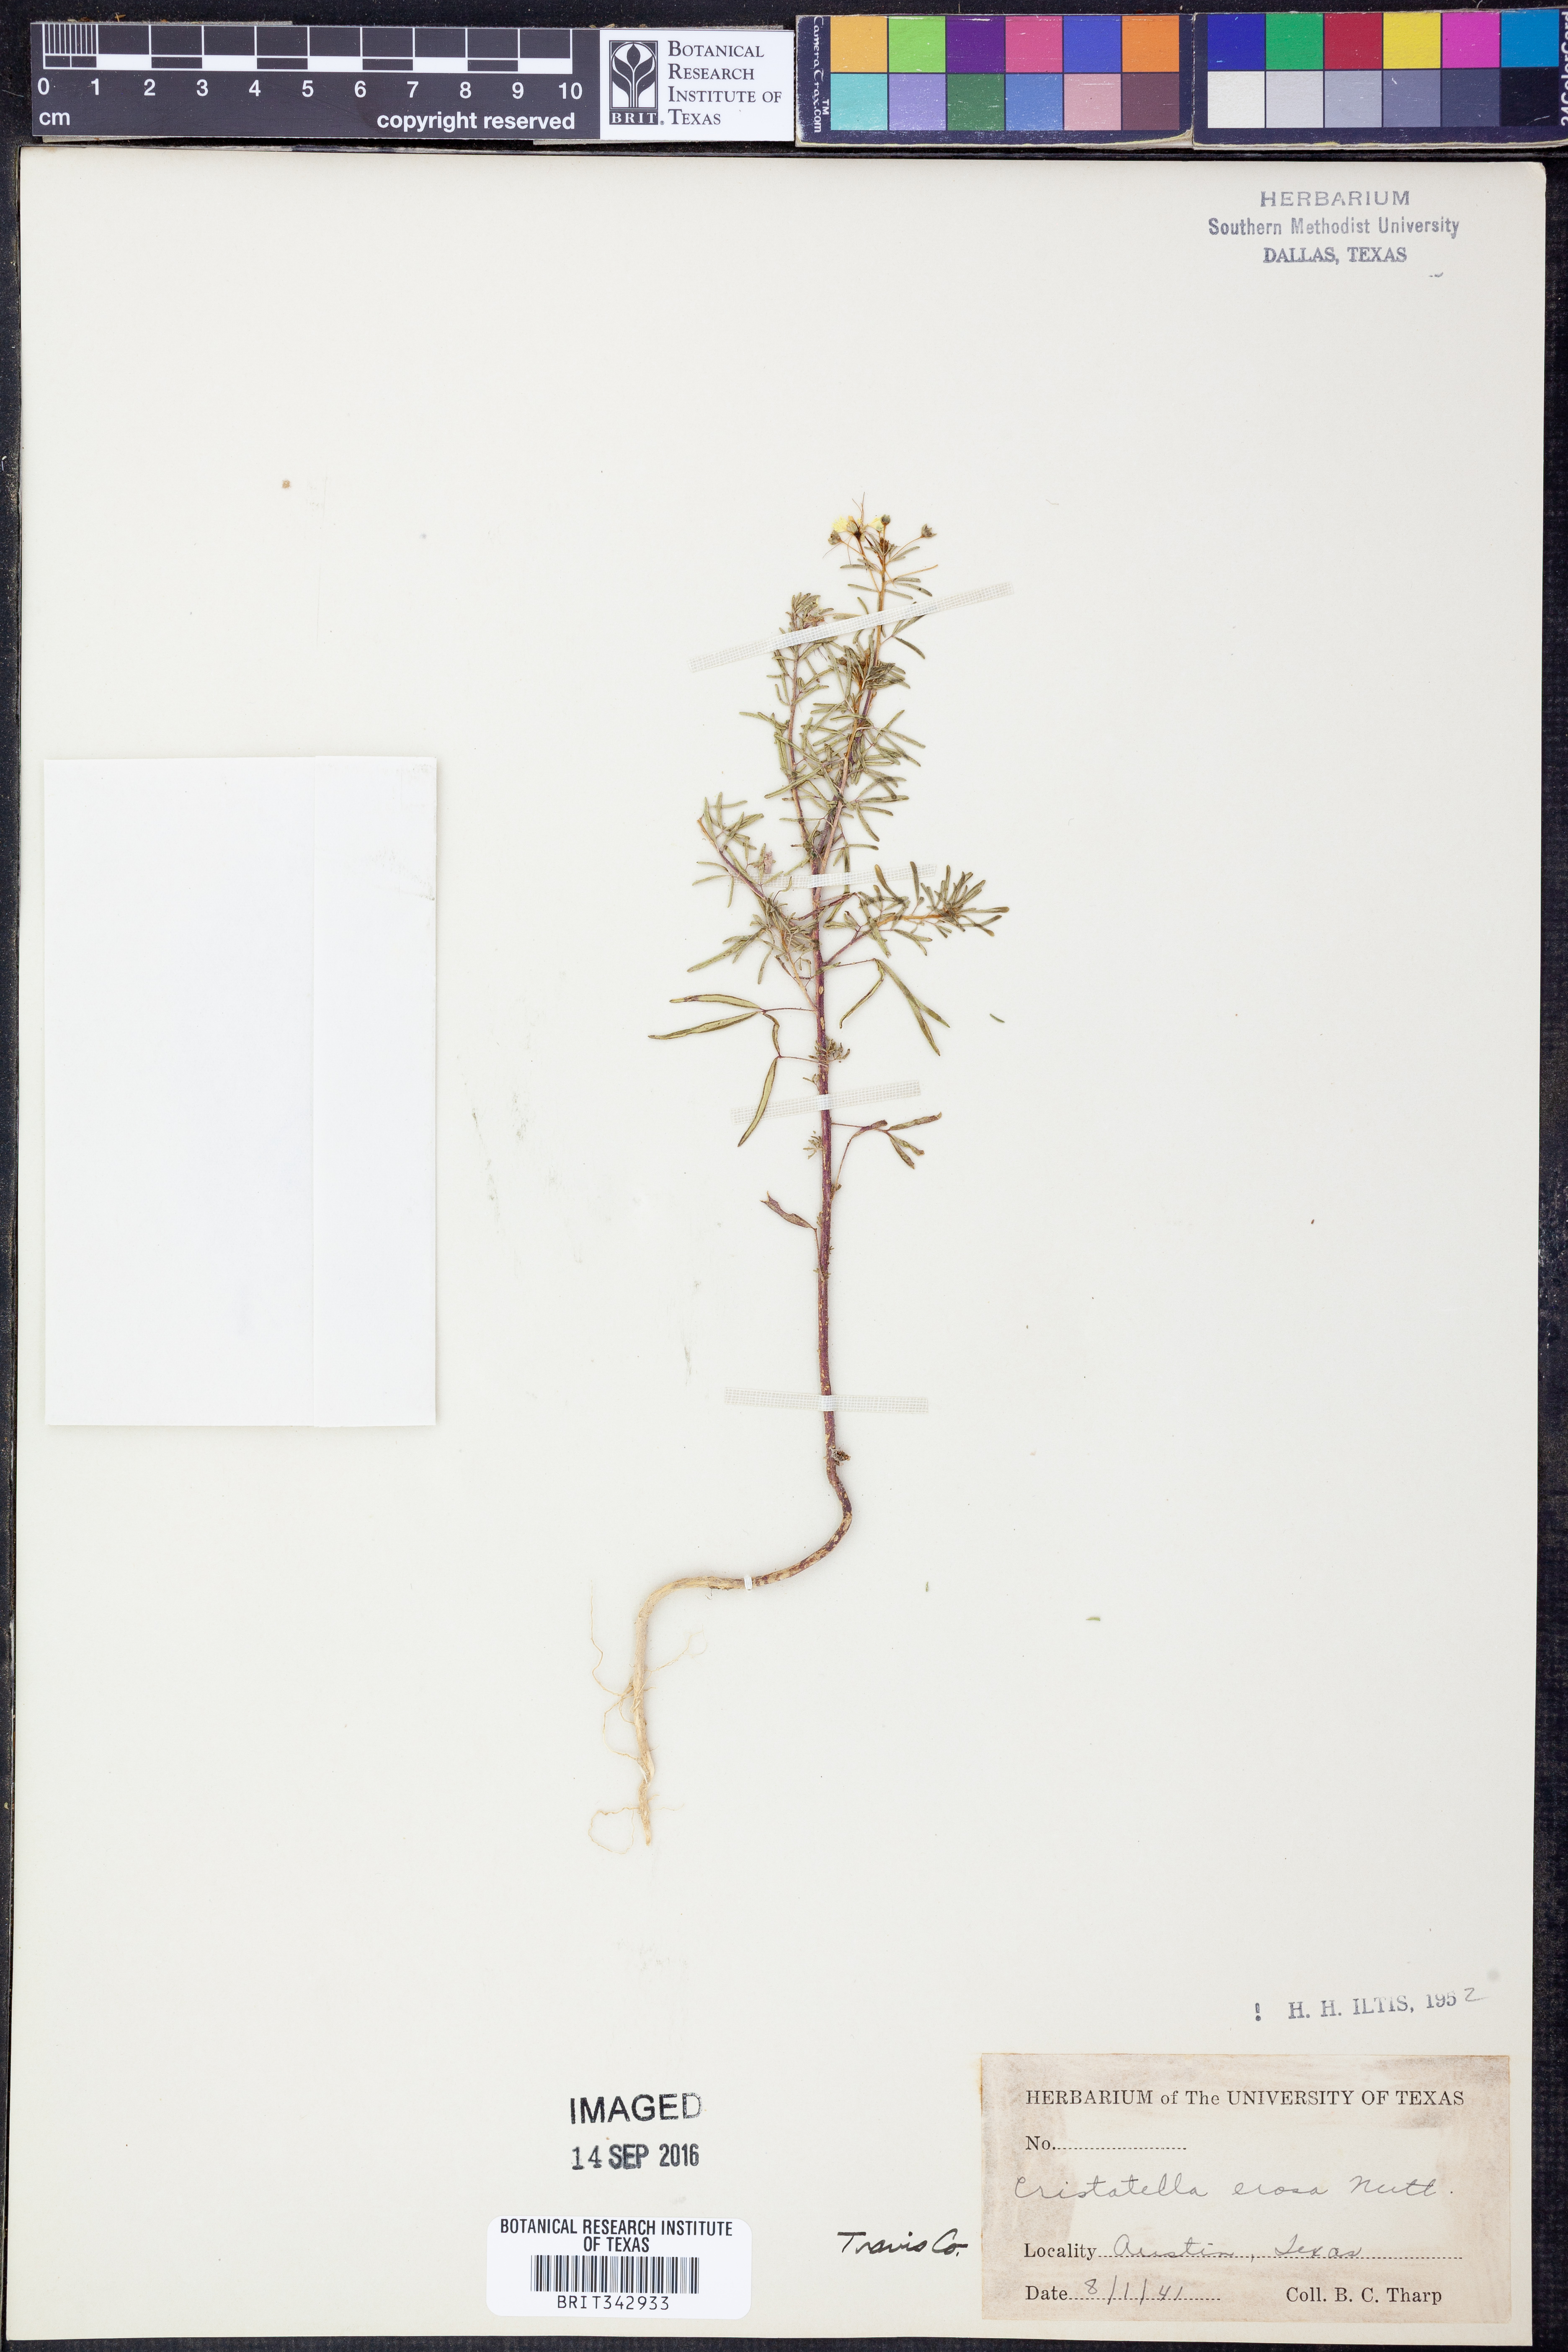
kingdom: Plantae
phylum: Tracheophyta
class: Magnoliopsida
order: Brassicales
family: Cleomaceae
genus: Polanisia
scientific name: Polanisia erosa
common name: Large clammyweed
